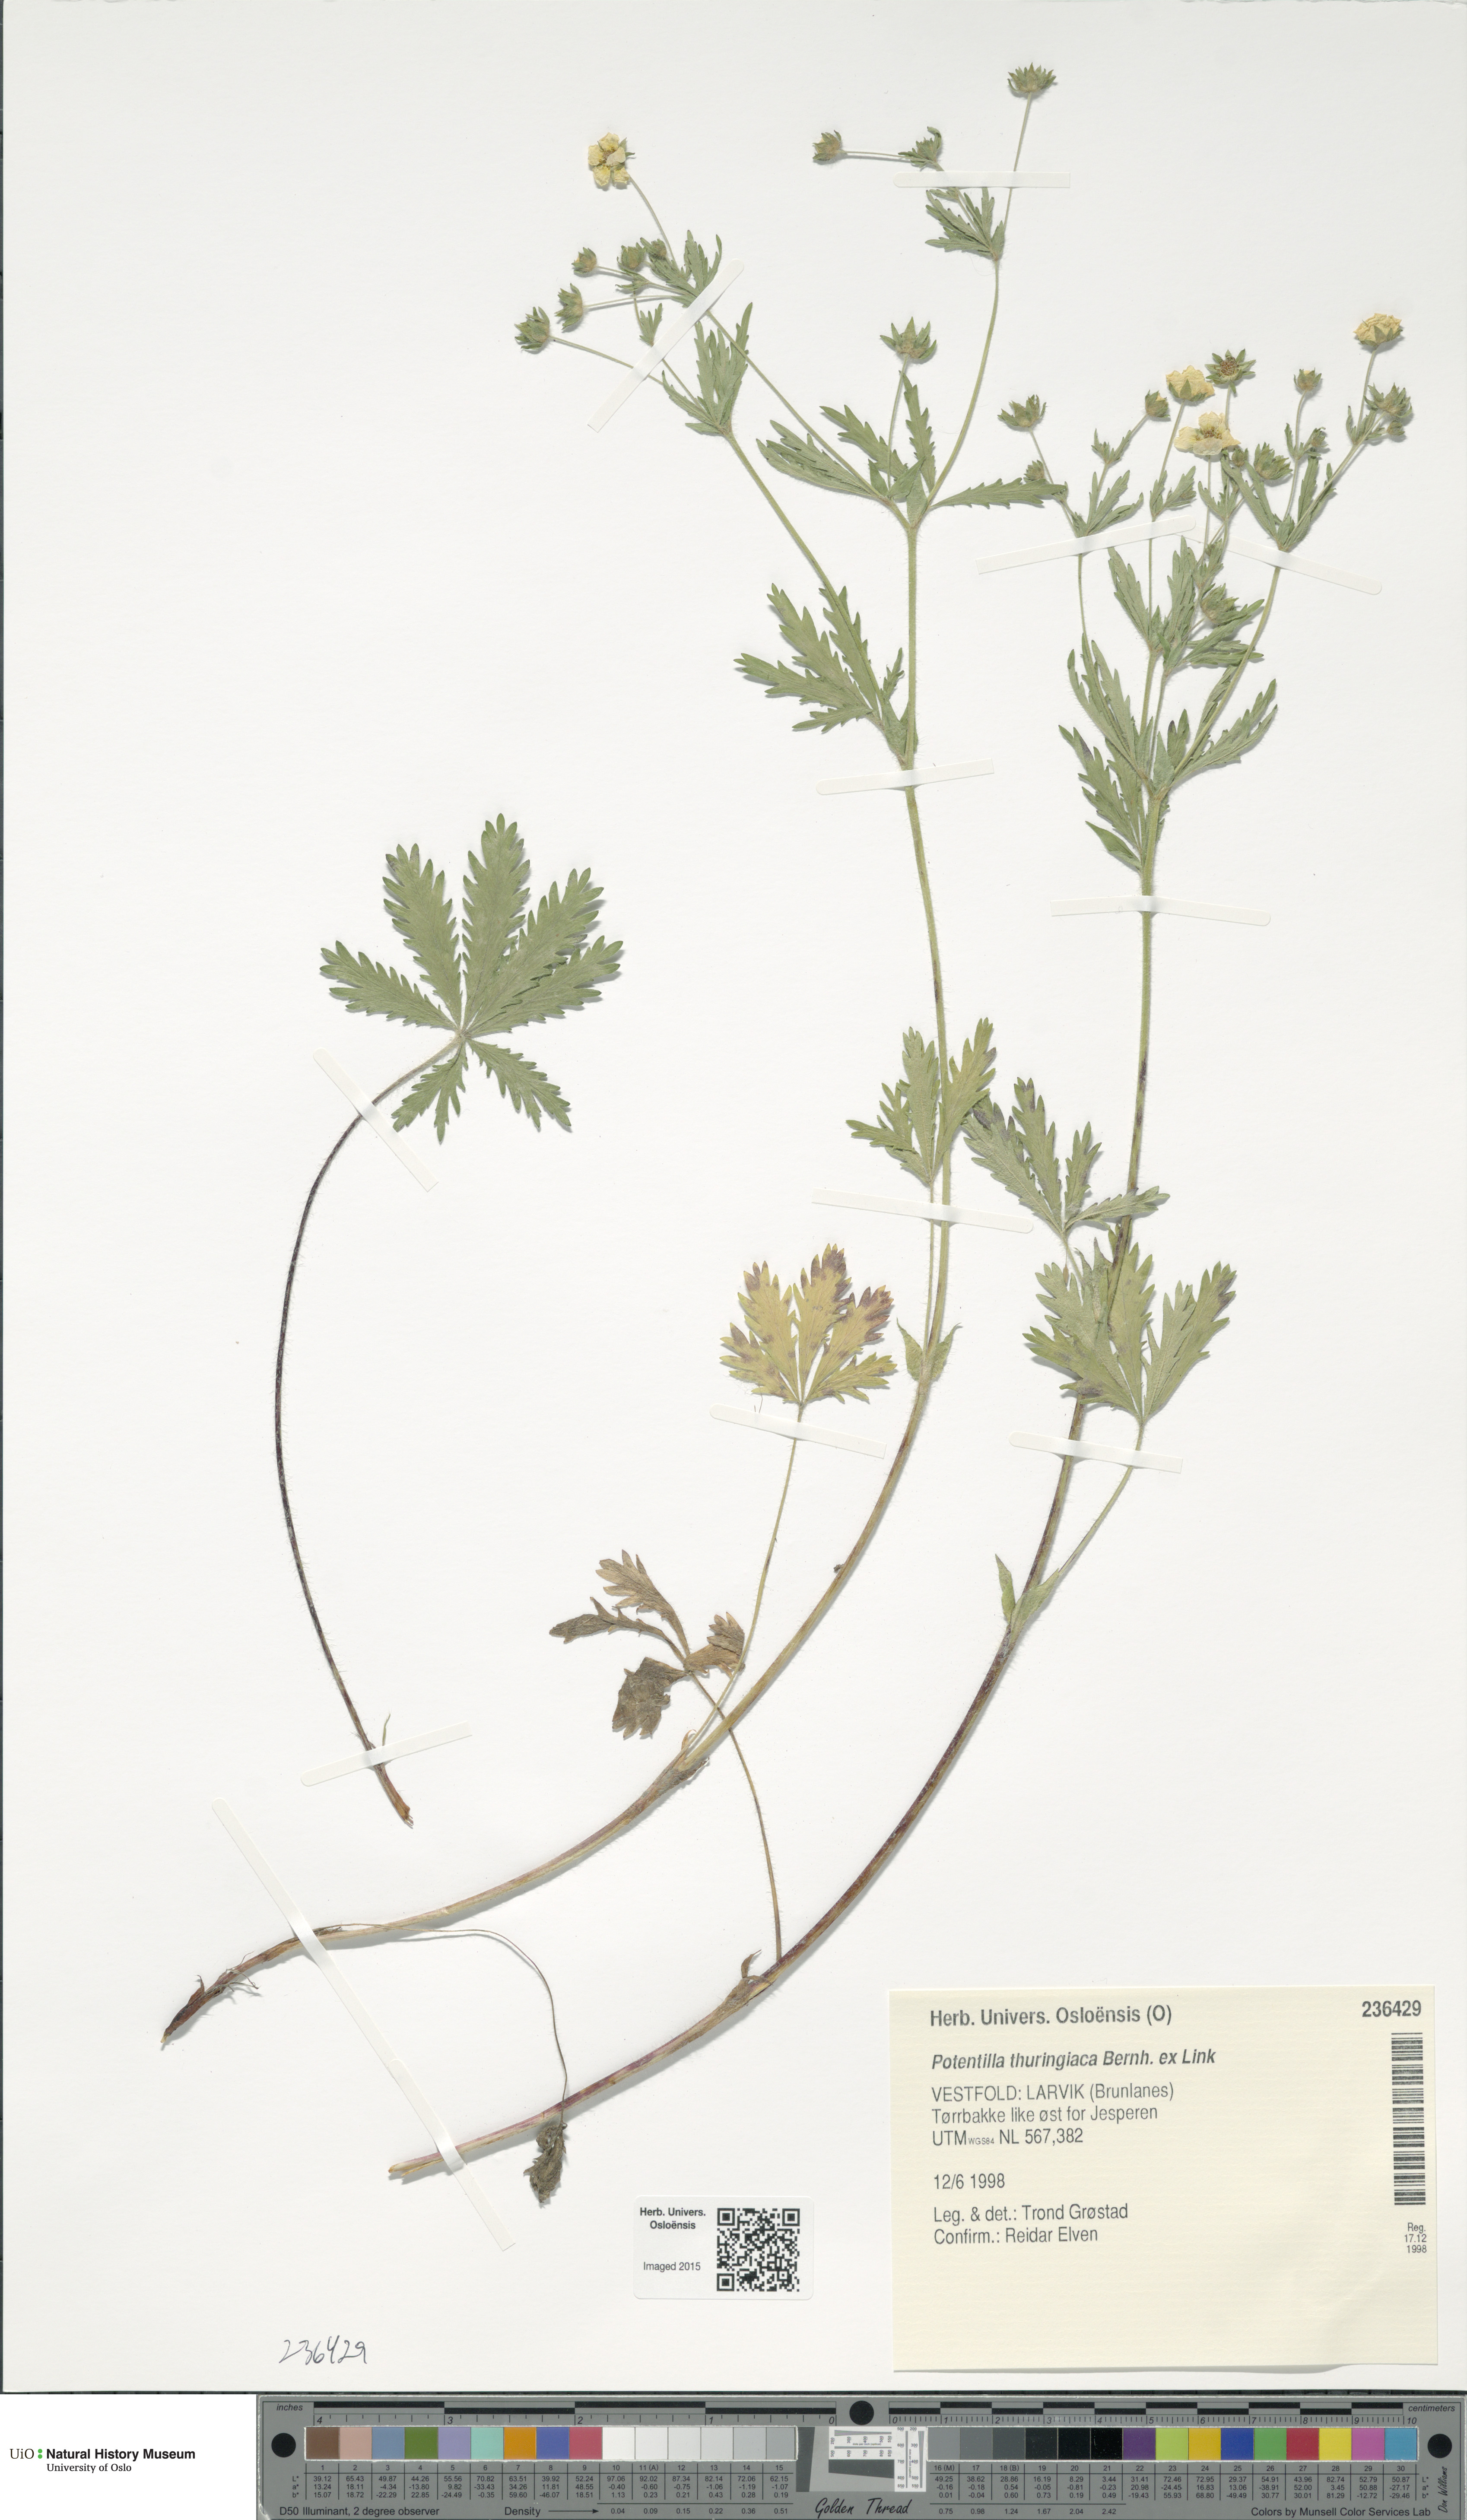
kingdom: Plantae
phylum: Tracheophyta
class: Magnoliopsida
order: Rosales
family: Rosaceae
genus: Potentilla
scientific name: Potentilla thuringiaca
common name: European cinquefoil
